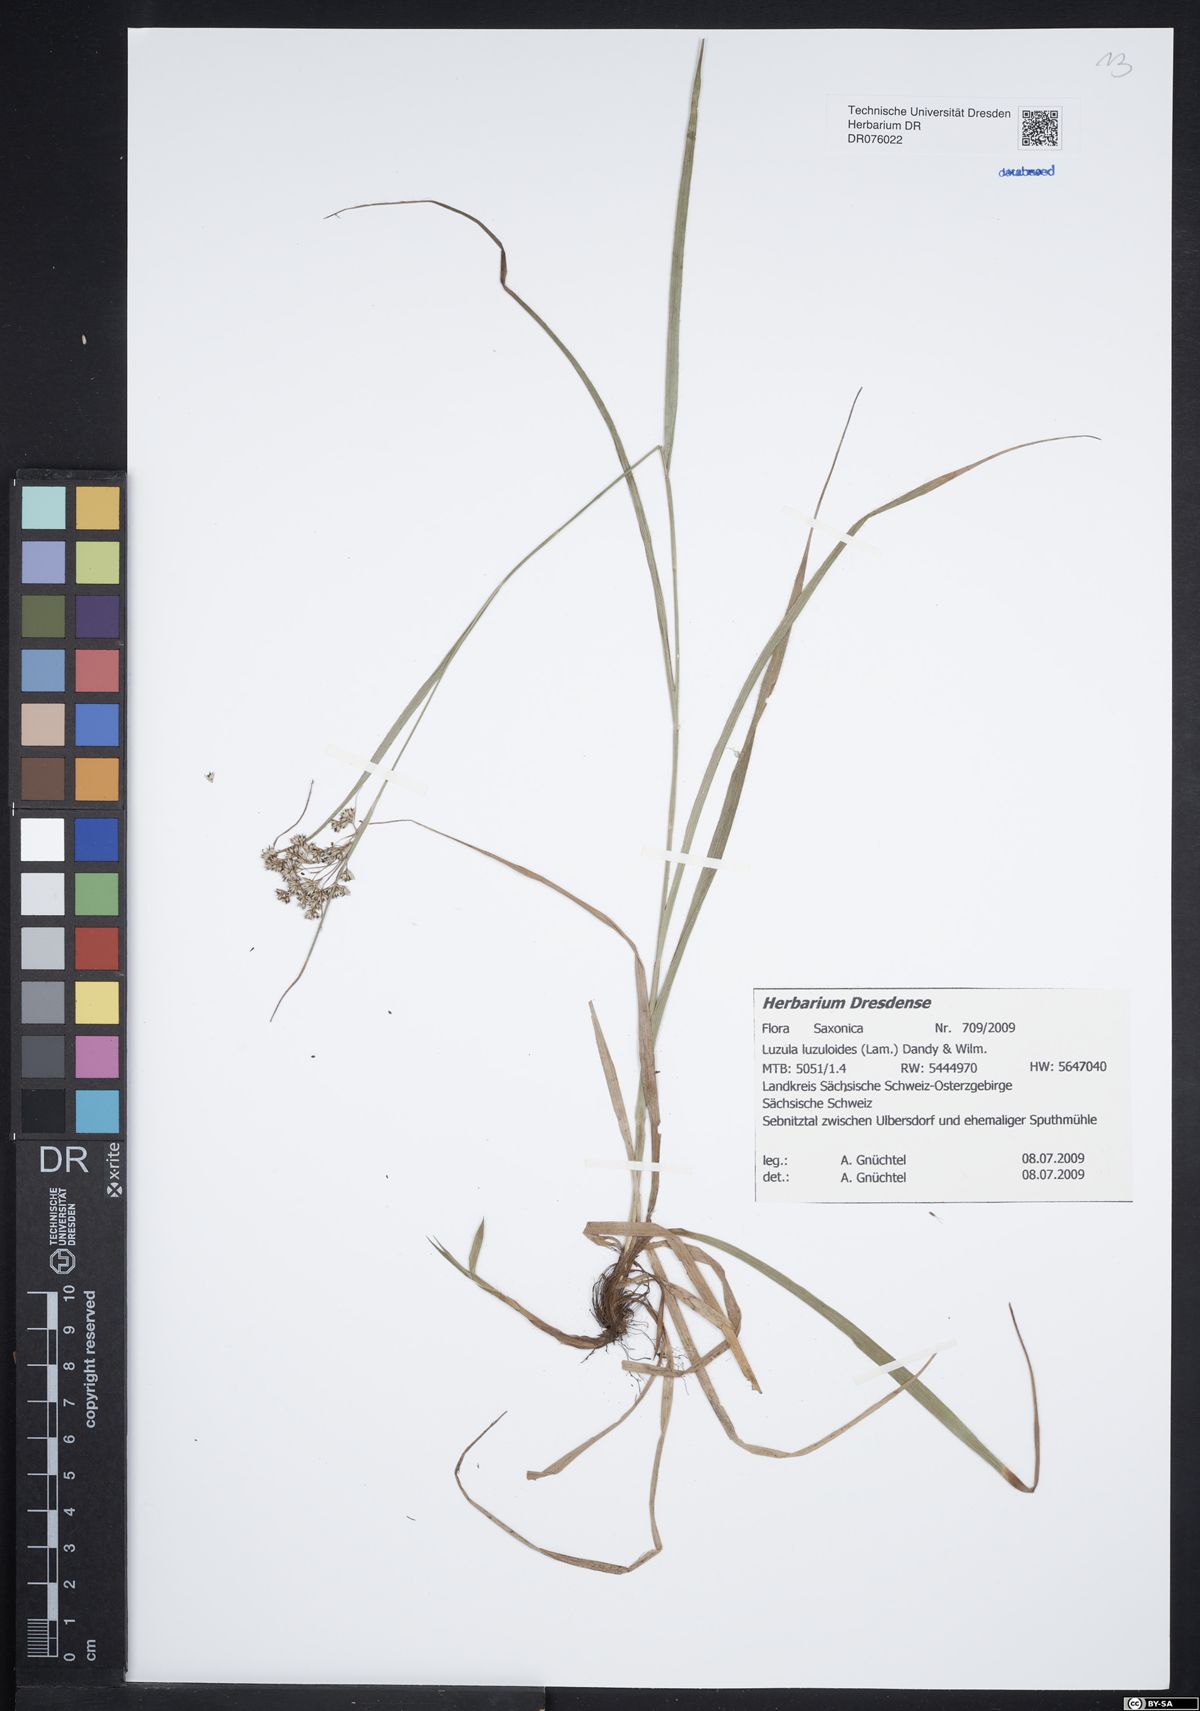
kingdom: Plantae
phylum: Tracheophyta
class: Liliopsida
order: Poales
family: Juncaceae
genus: Luzula
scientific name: Luzula luzuloides
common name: White wood-rush
